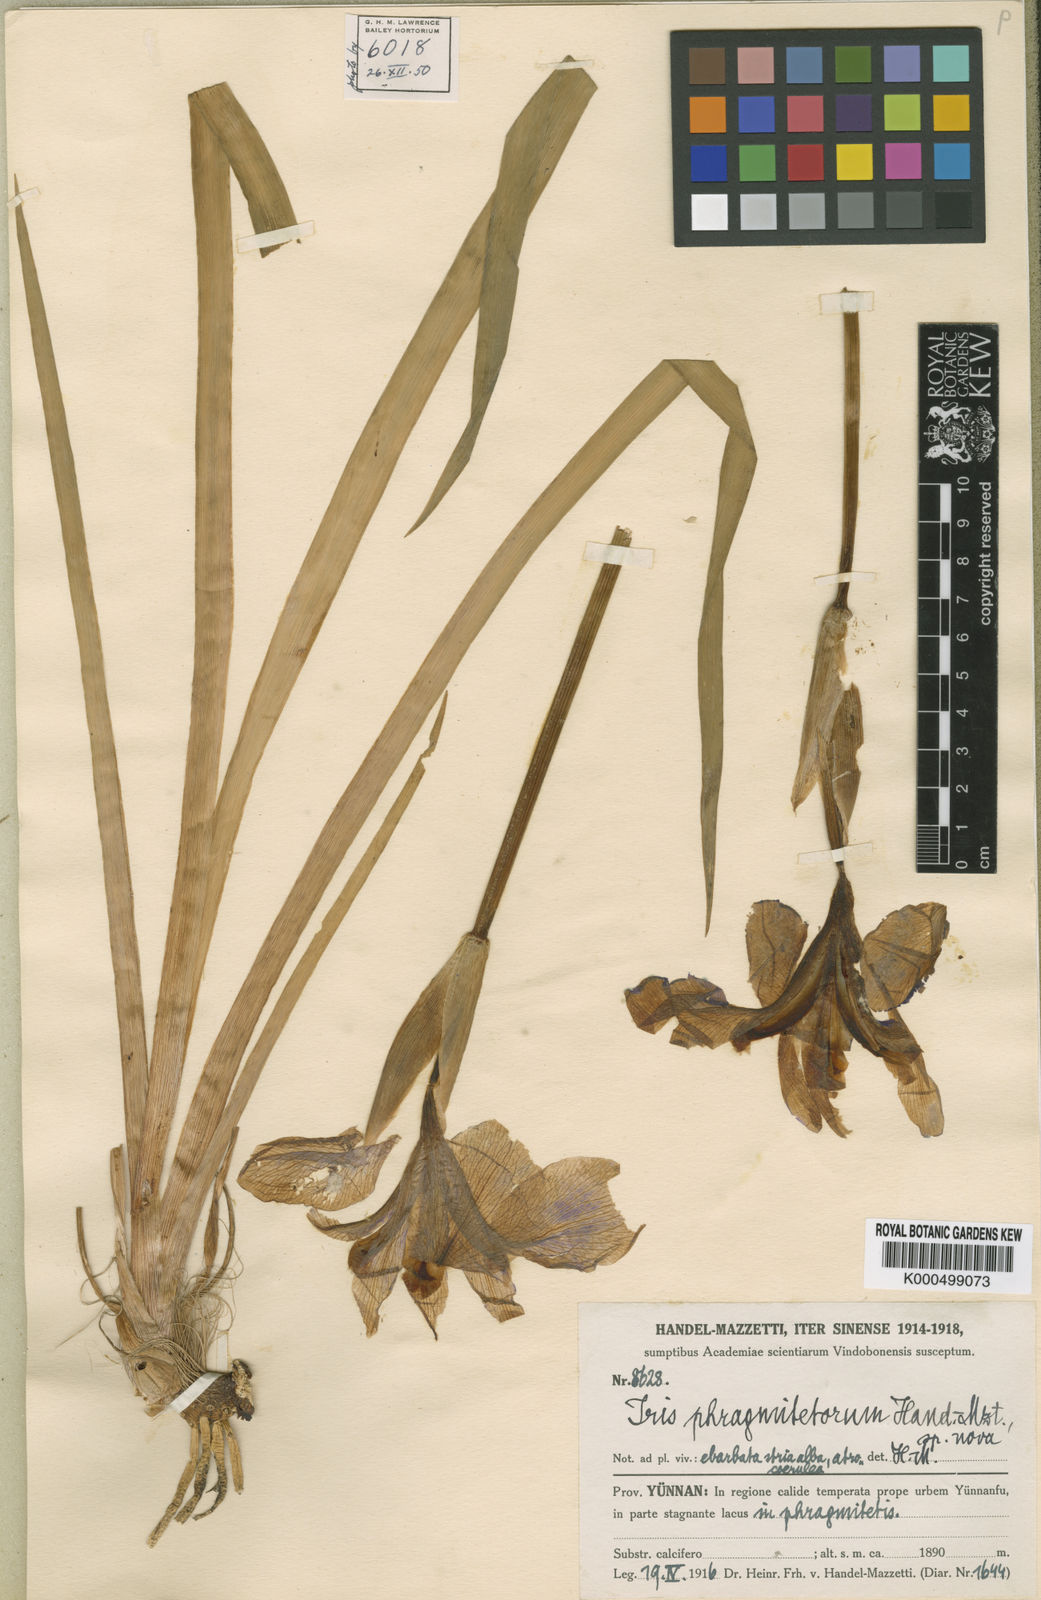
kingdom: Plantae
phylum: Tracheophyta
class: Liliopsida
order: Asparagales
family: Iridaceae
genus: Iris
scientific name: Iris laevigata
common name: Japanese iris
